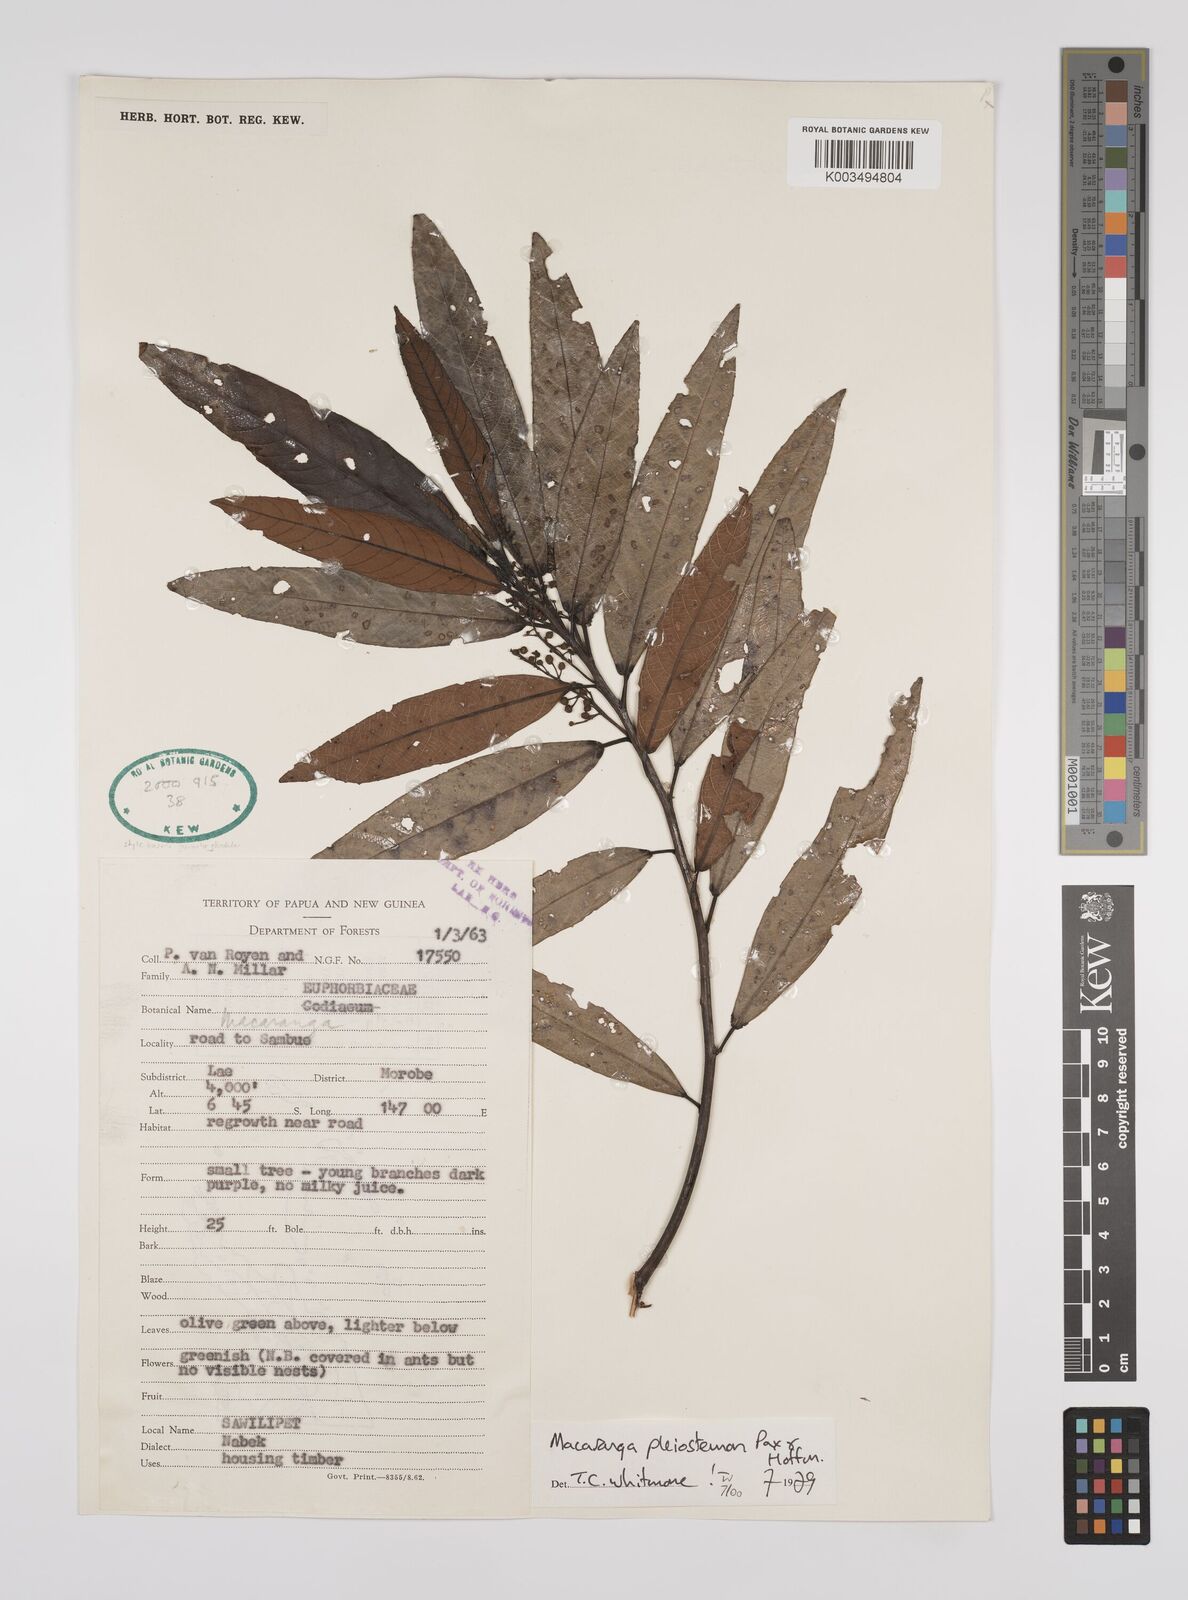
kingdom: Plantae
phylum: Tracheophyta
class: Magnoliopsida
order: Malpighiales
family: Euphorbiaceae
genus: Macaranga
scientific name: Macaranga pleiostemon
